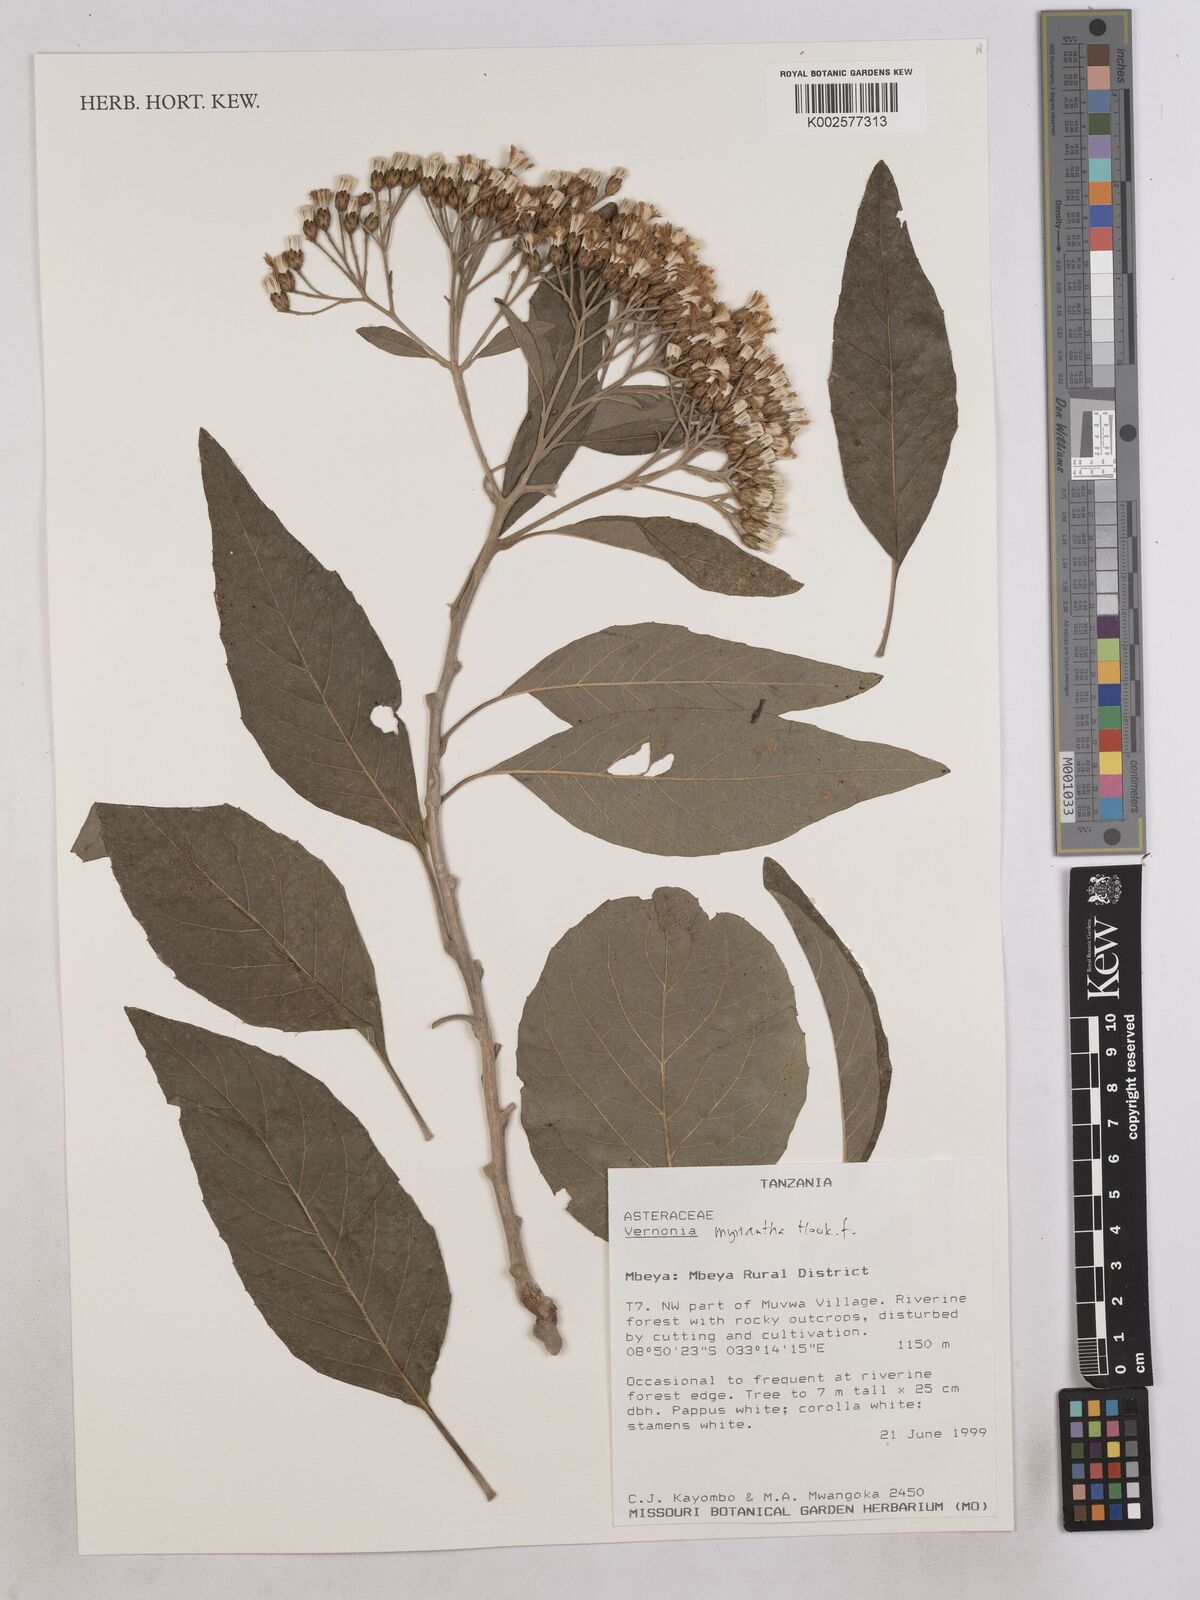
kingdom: Plantae
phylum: Tracheophyta
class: Magnoliopsida
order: Asterales
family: Asteraceae
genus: Gymnanthemum
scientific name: Gymnanthemum myrianthum
